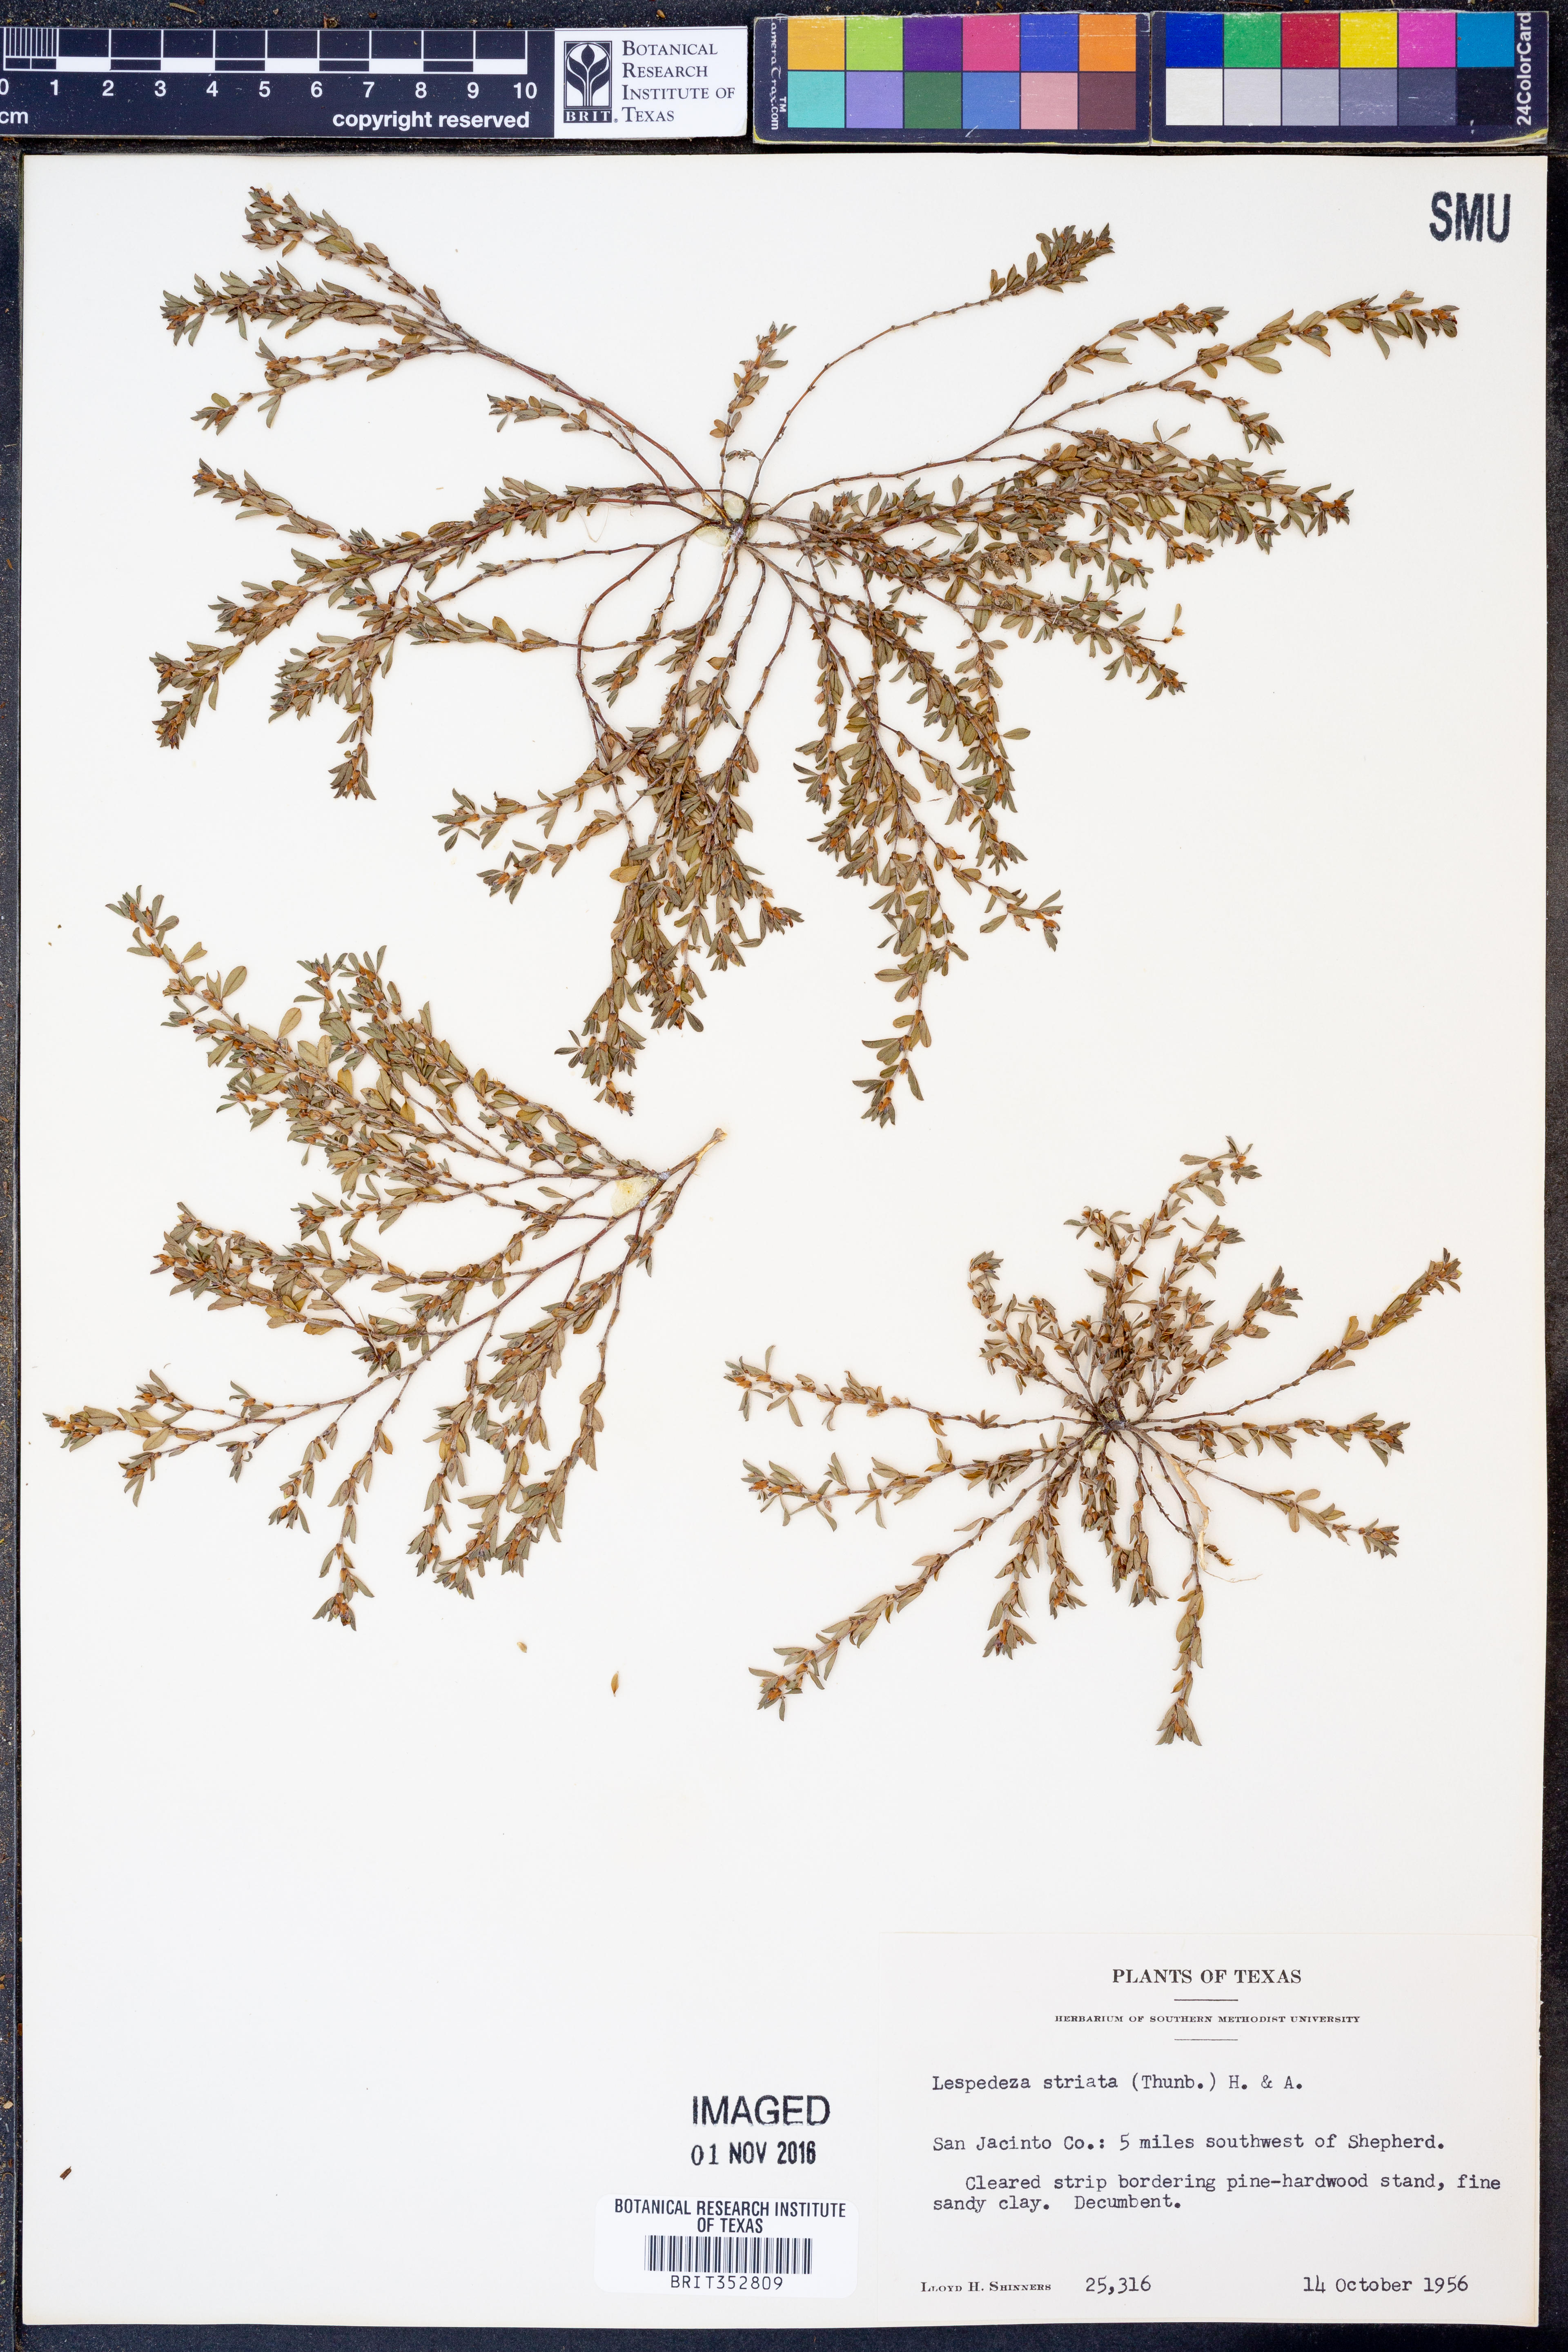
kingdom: Plantae
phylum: Tracheophyta
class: Magnoliopsida
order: Fabales
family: Fabaceae
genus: Kummerowia
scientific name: Kummerowia striata
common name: Japanese clover
